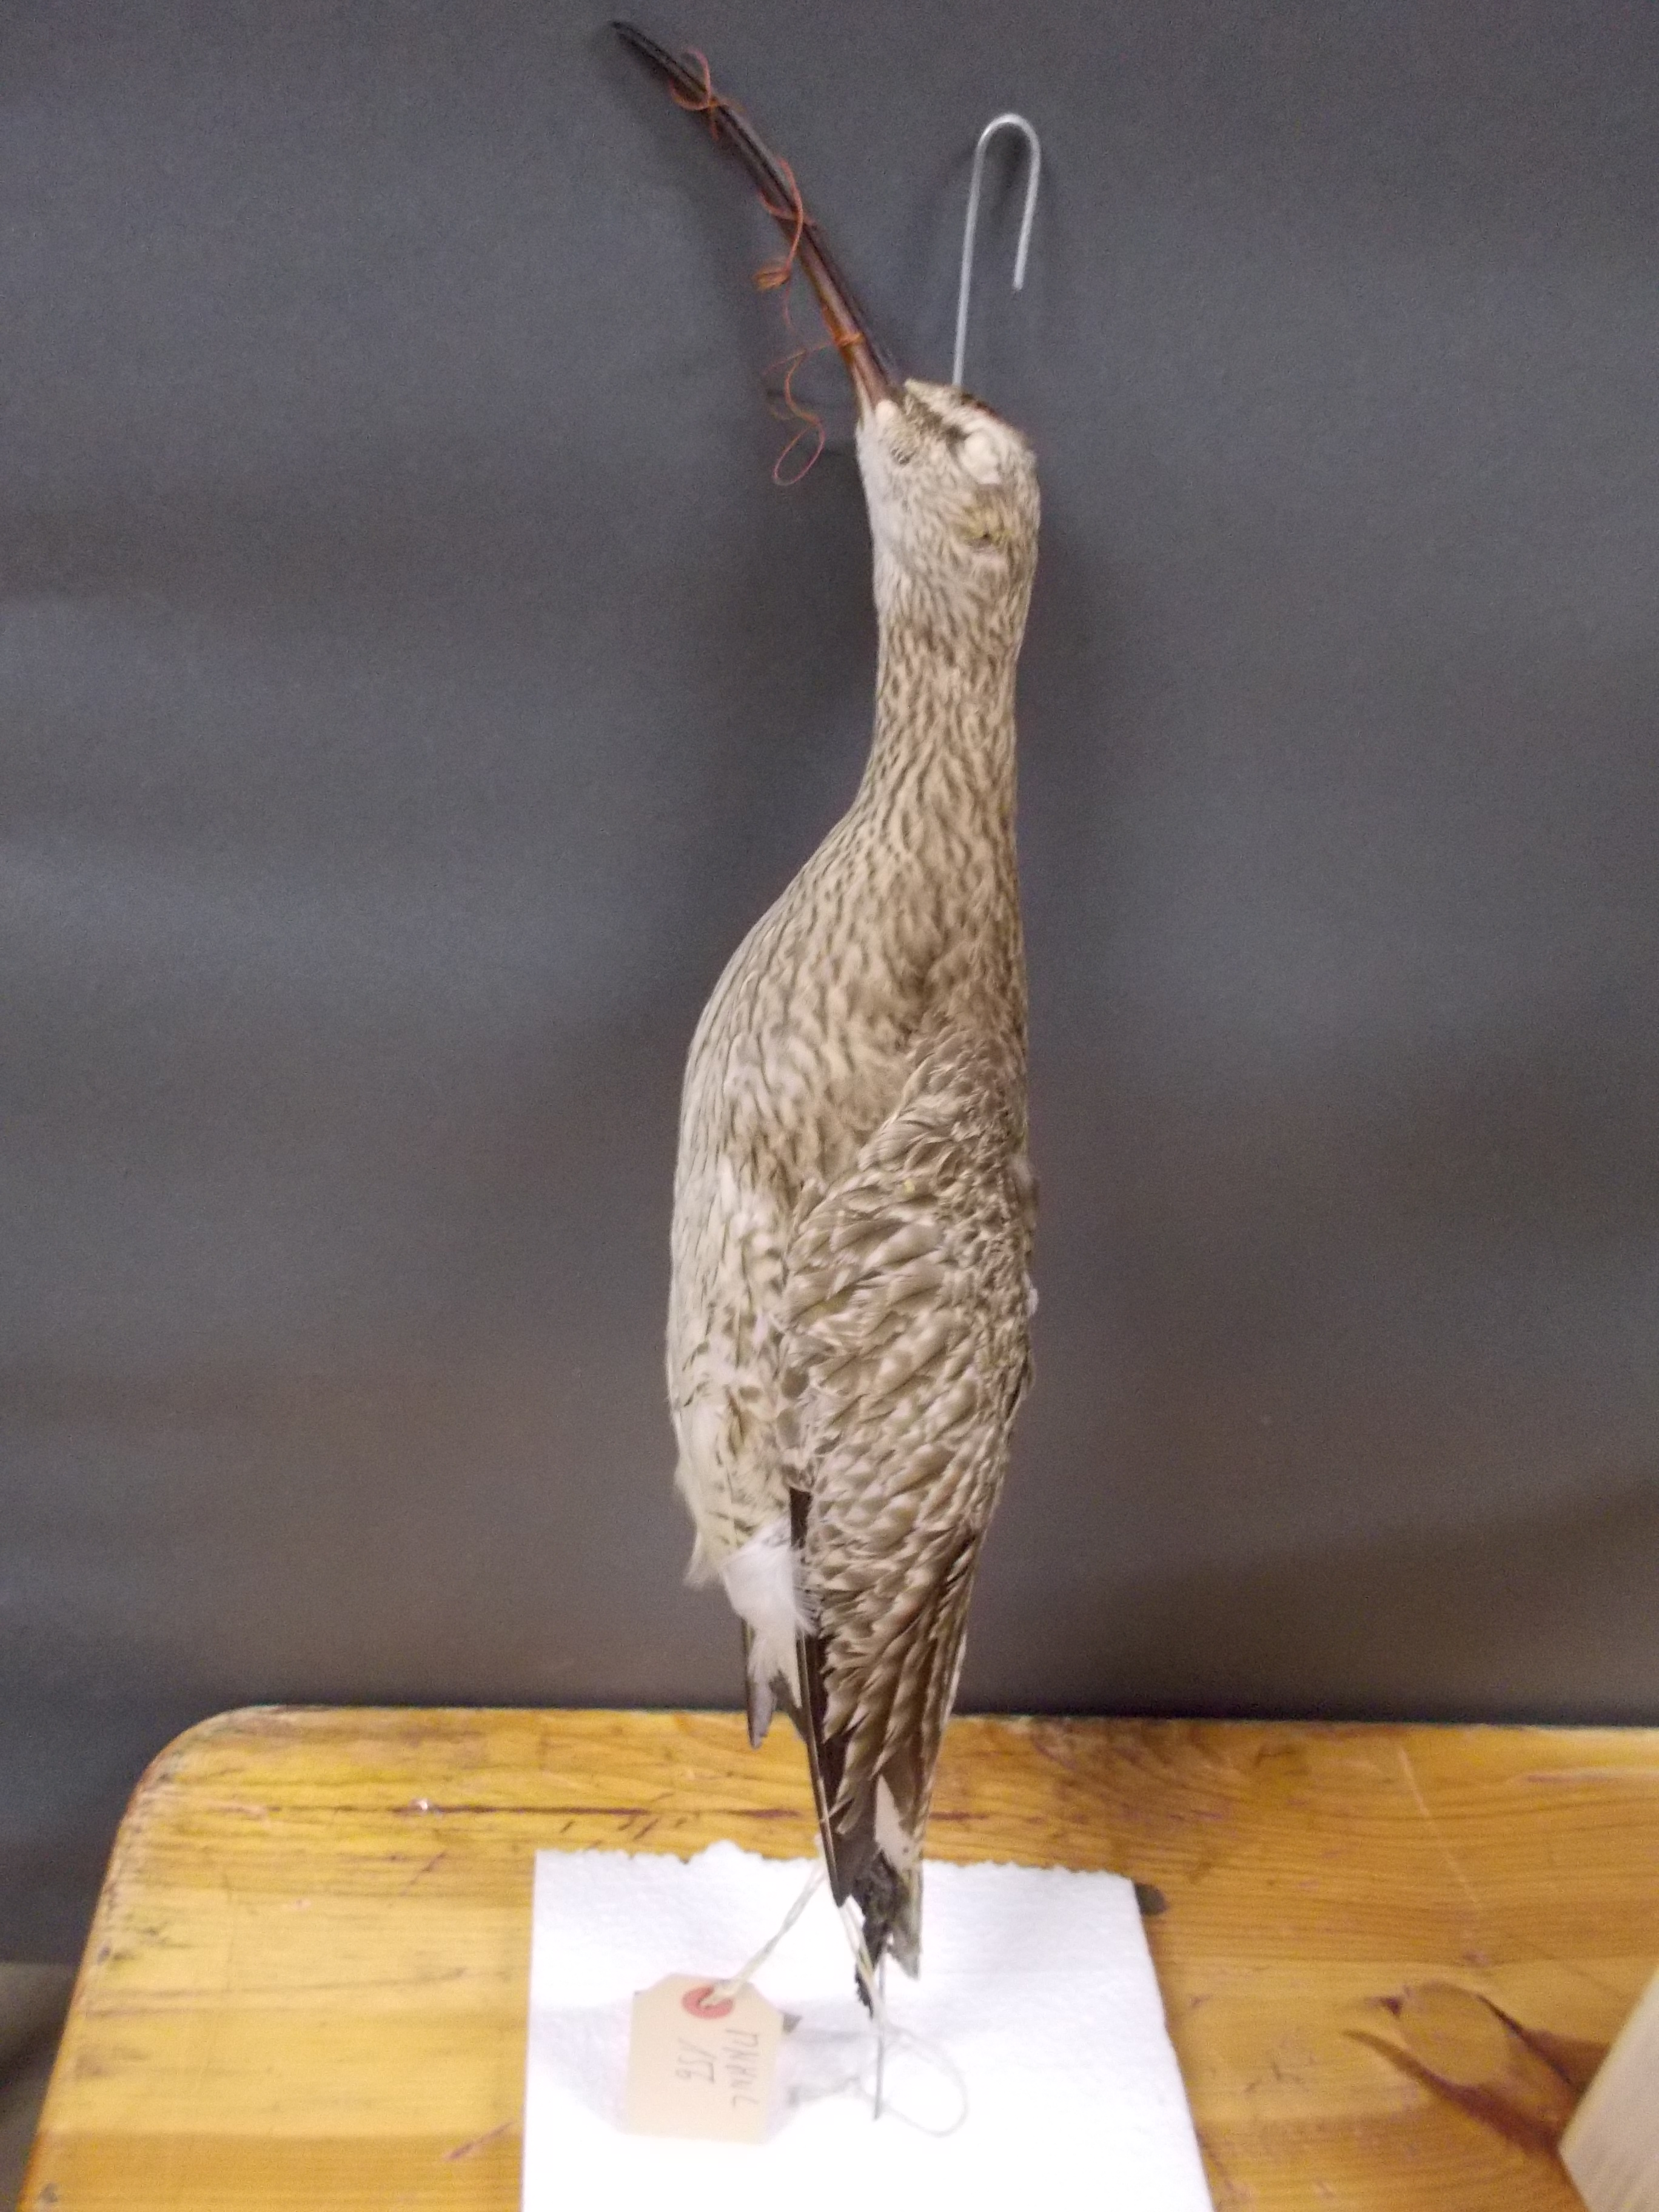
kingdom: Animalia
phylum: Chordata
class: Aves
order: Charadriiformes
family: Scolopacidae
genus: Numenius
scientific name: Numenius phaeopus
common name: Whimbrel
